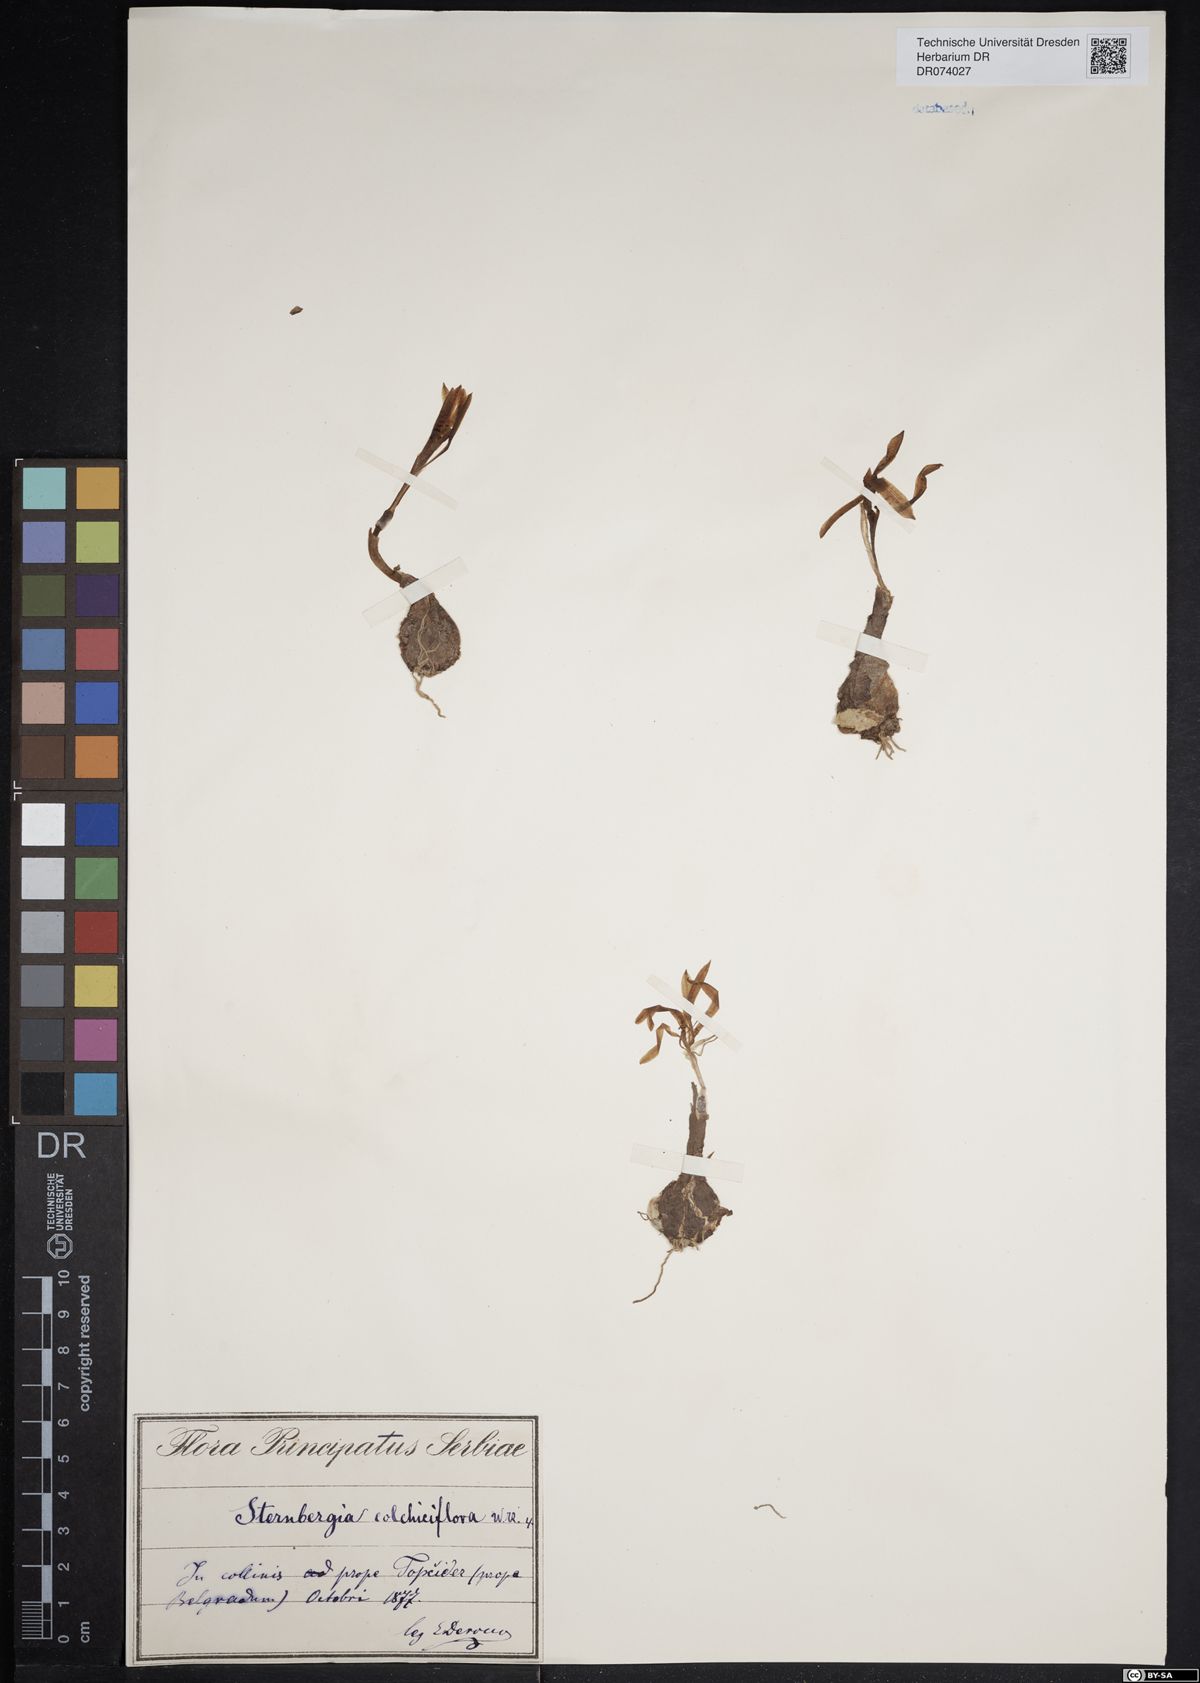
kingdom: Plantae
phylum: Tracheophyta
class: Liliopsida
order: Asparagales
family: Amaryllidaceae
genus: Sternbergia
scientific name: Sternbergia colchiciflora
